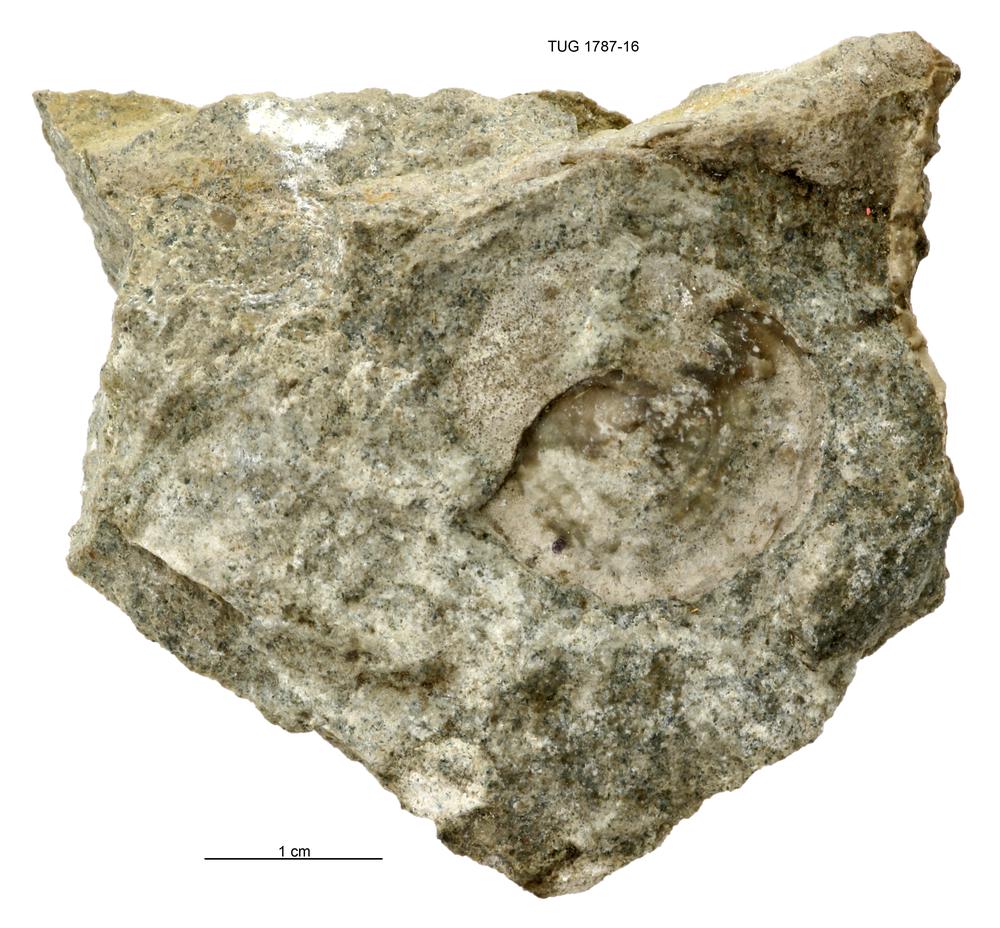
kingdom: Animalia
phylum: Mollusca
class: Monoplacophora
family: Metoptomatidae
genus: Metoptoma
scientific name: Metoptoma
